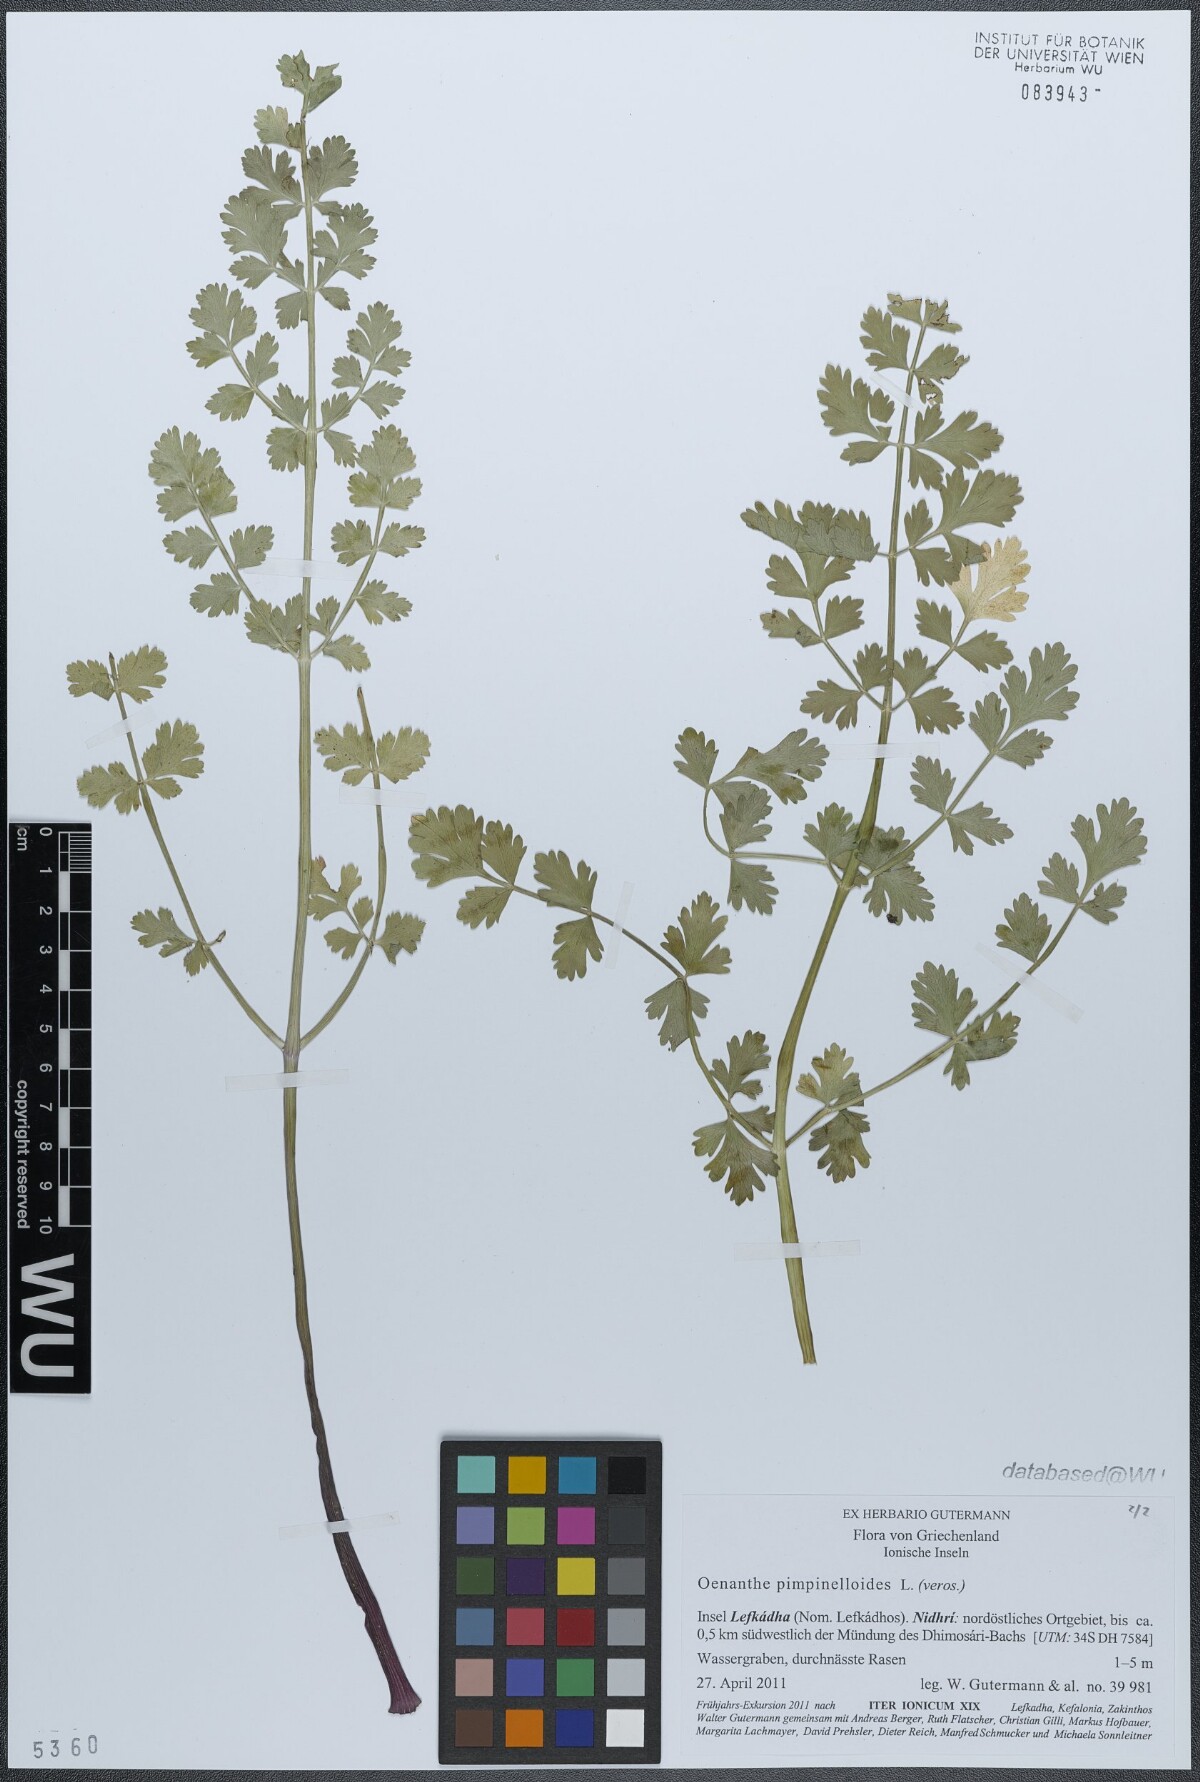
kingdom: Plantae
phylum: Tracheophyta
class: Magnoliopsida
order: Apiales
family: Apiaceae
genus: Oenanthe
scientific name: Oenanthe pimpinelloides
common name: Corky-fruited water-dropwort
